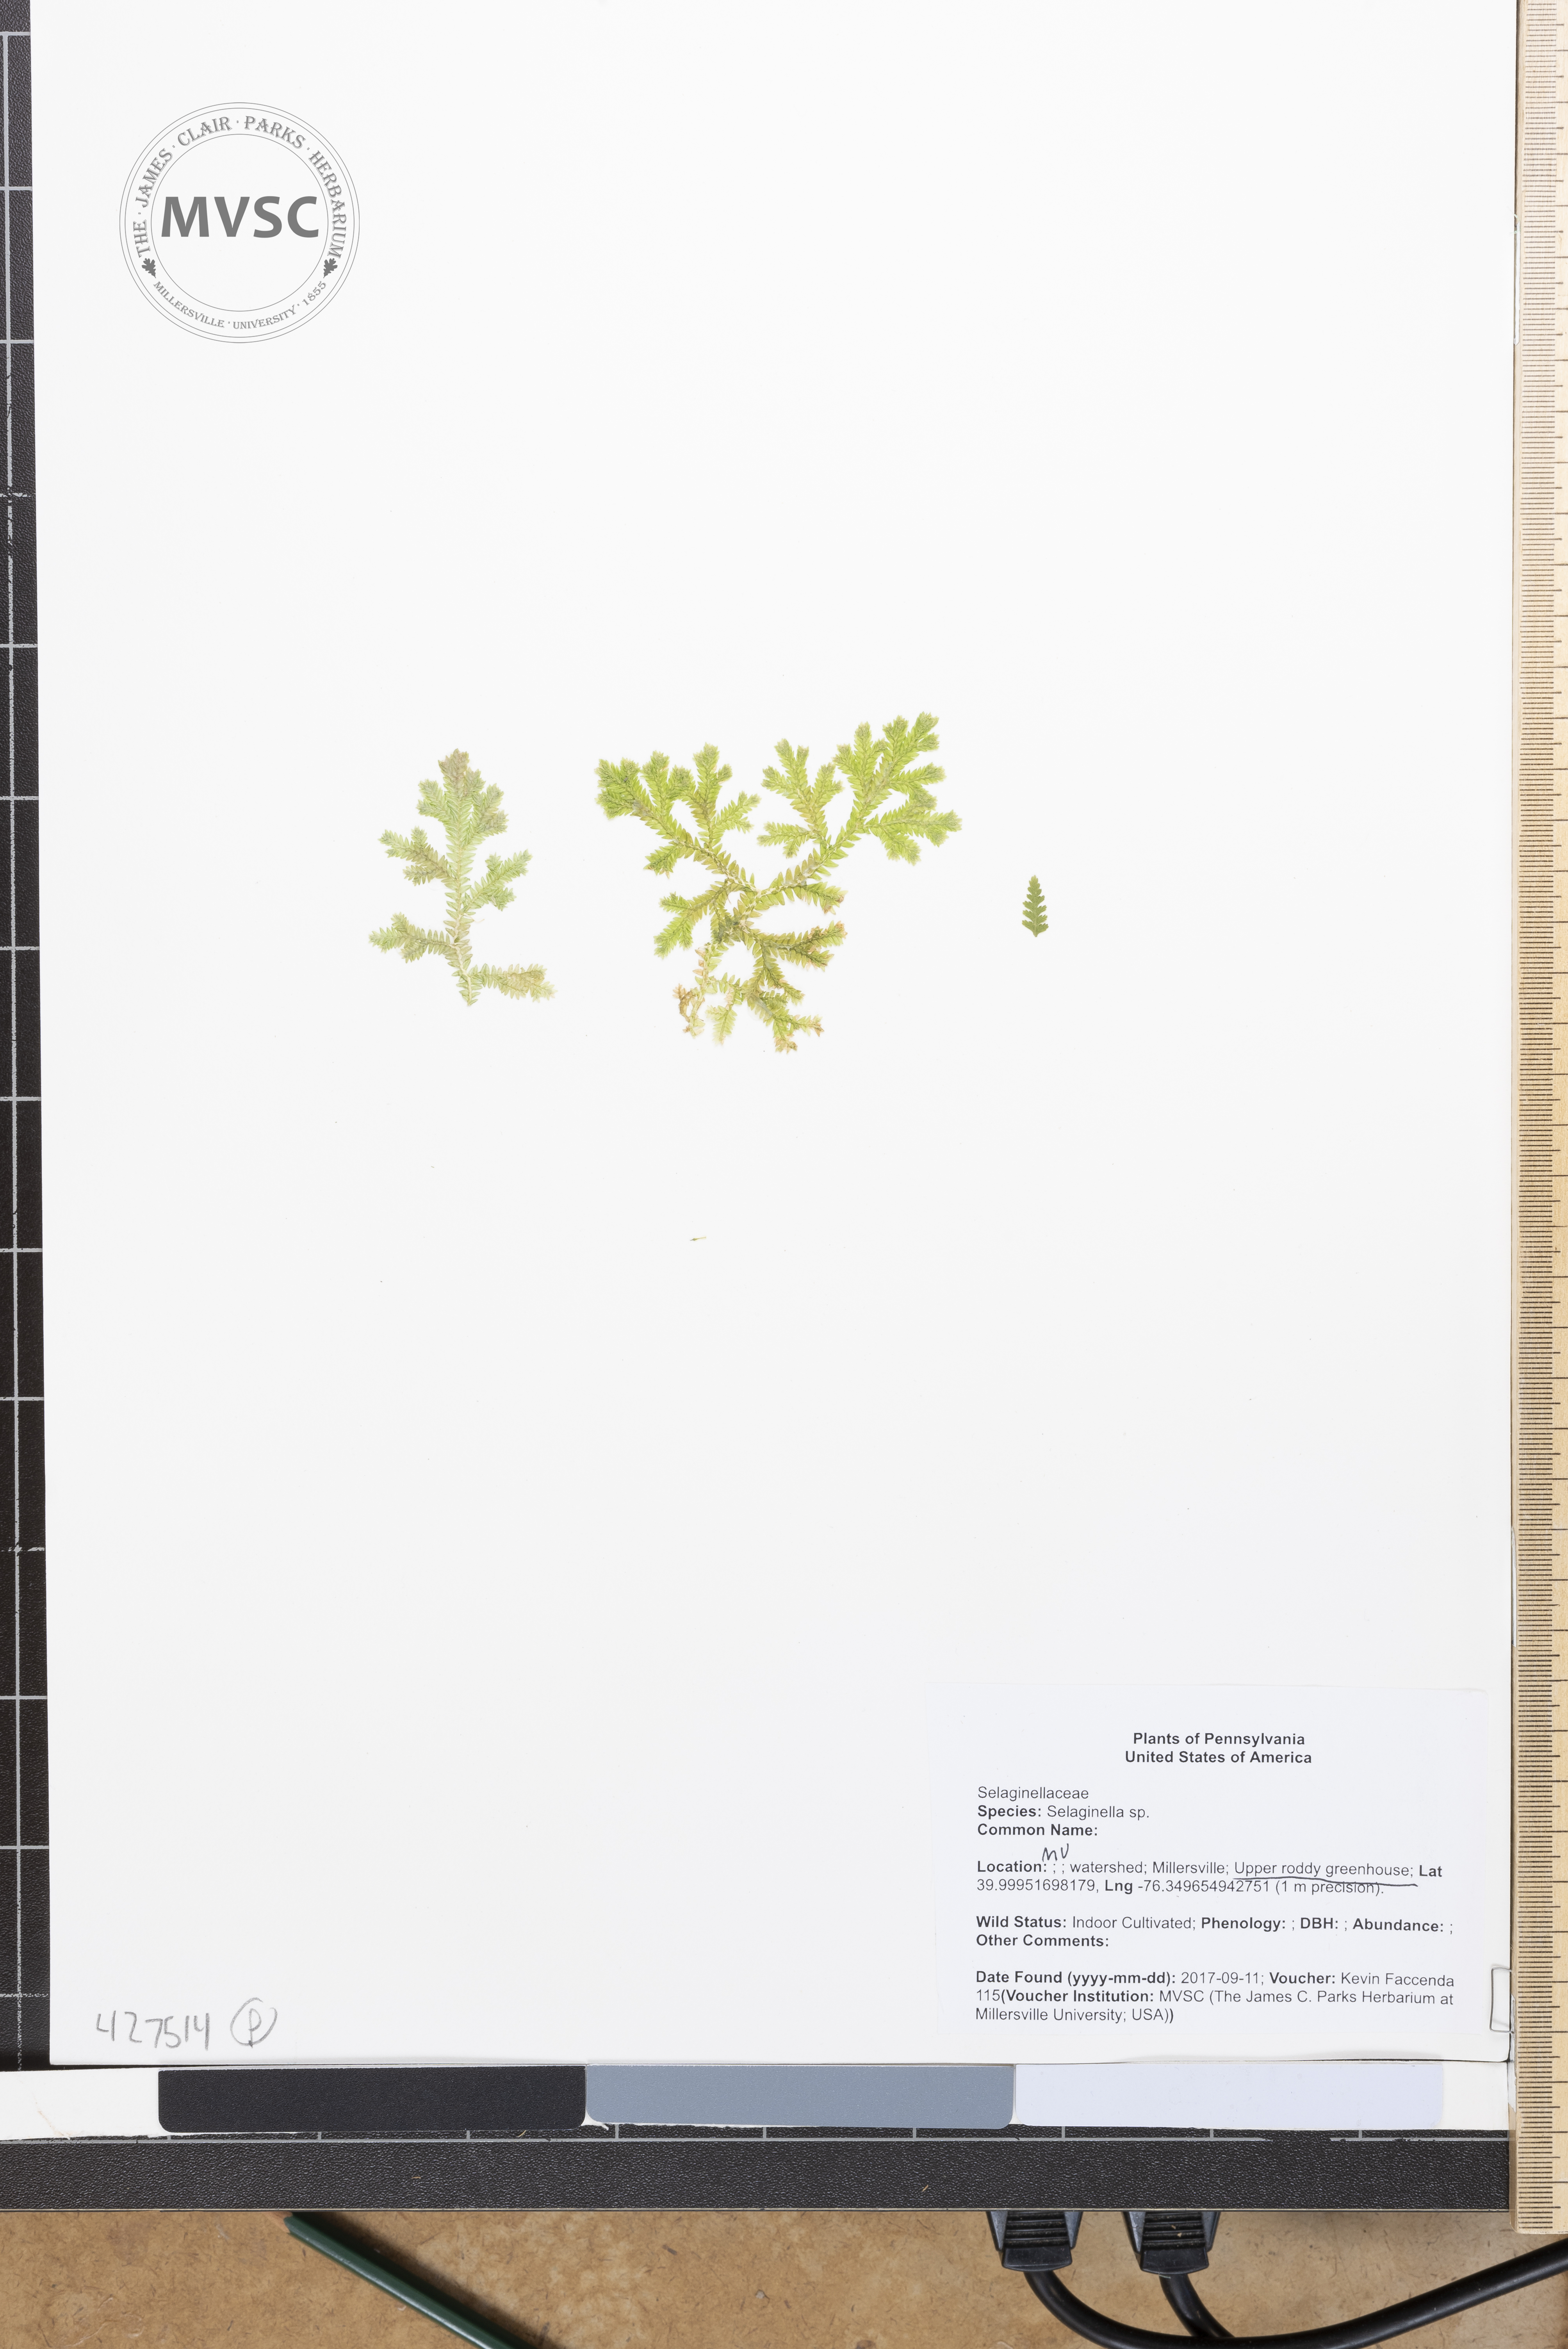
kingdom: Plantae
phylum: Tracheophyta
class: Lycopodiopsida
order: Selaginellales
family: Selaginellaceae
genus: Selaginella
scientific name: Selaginella
